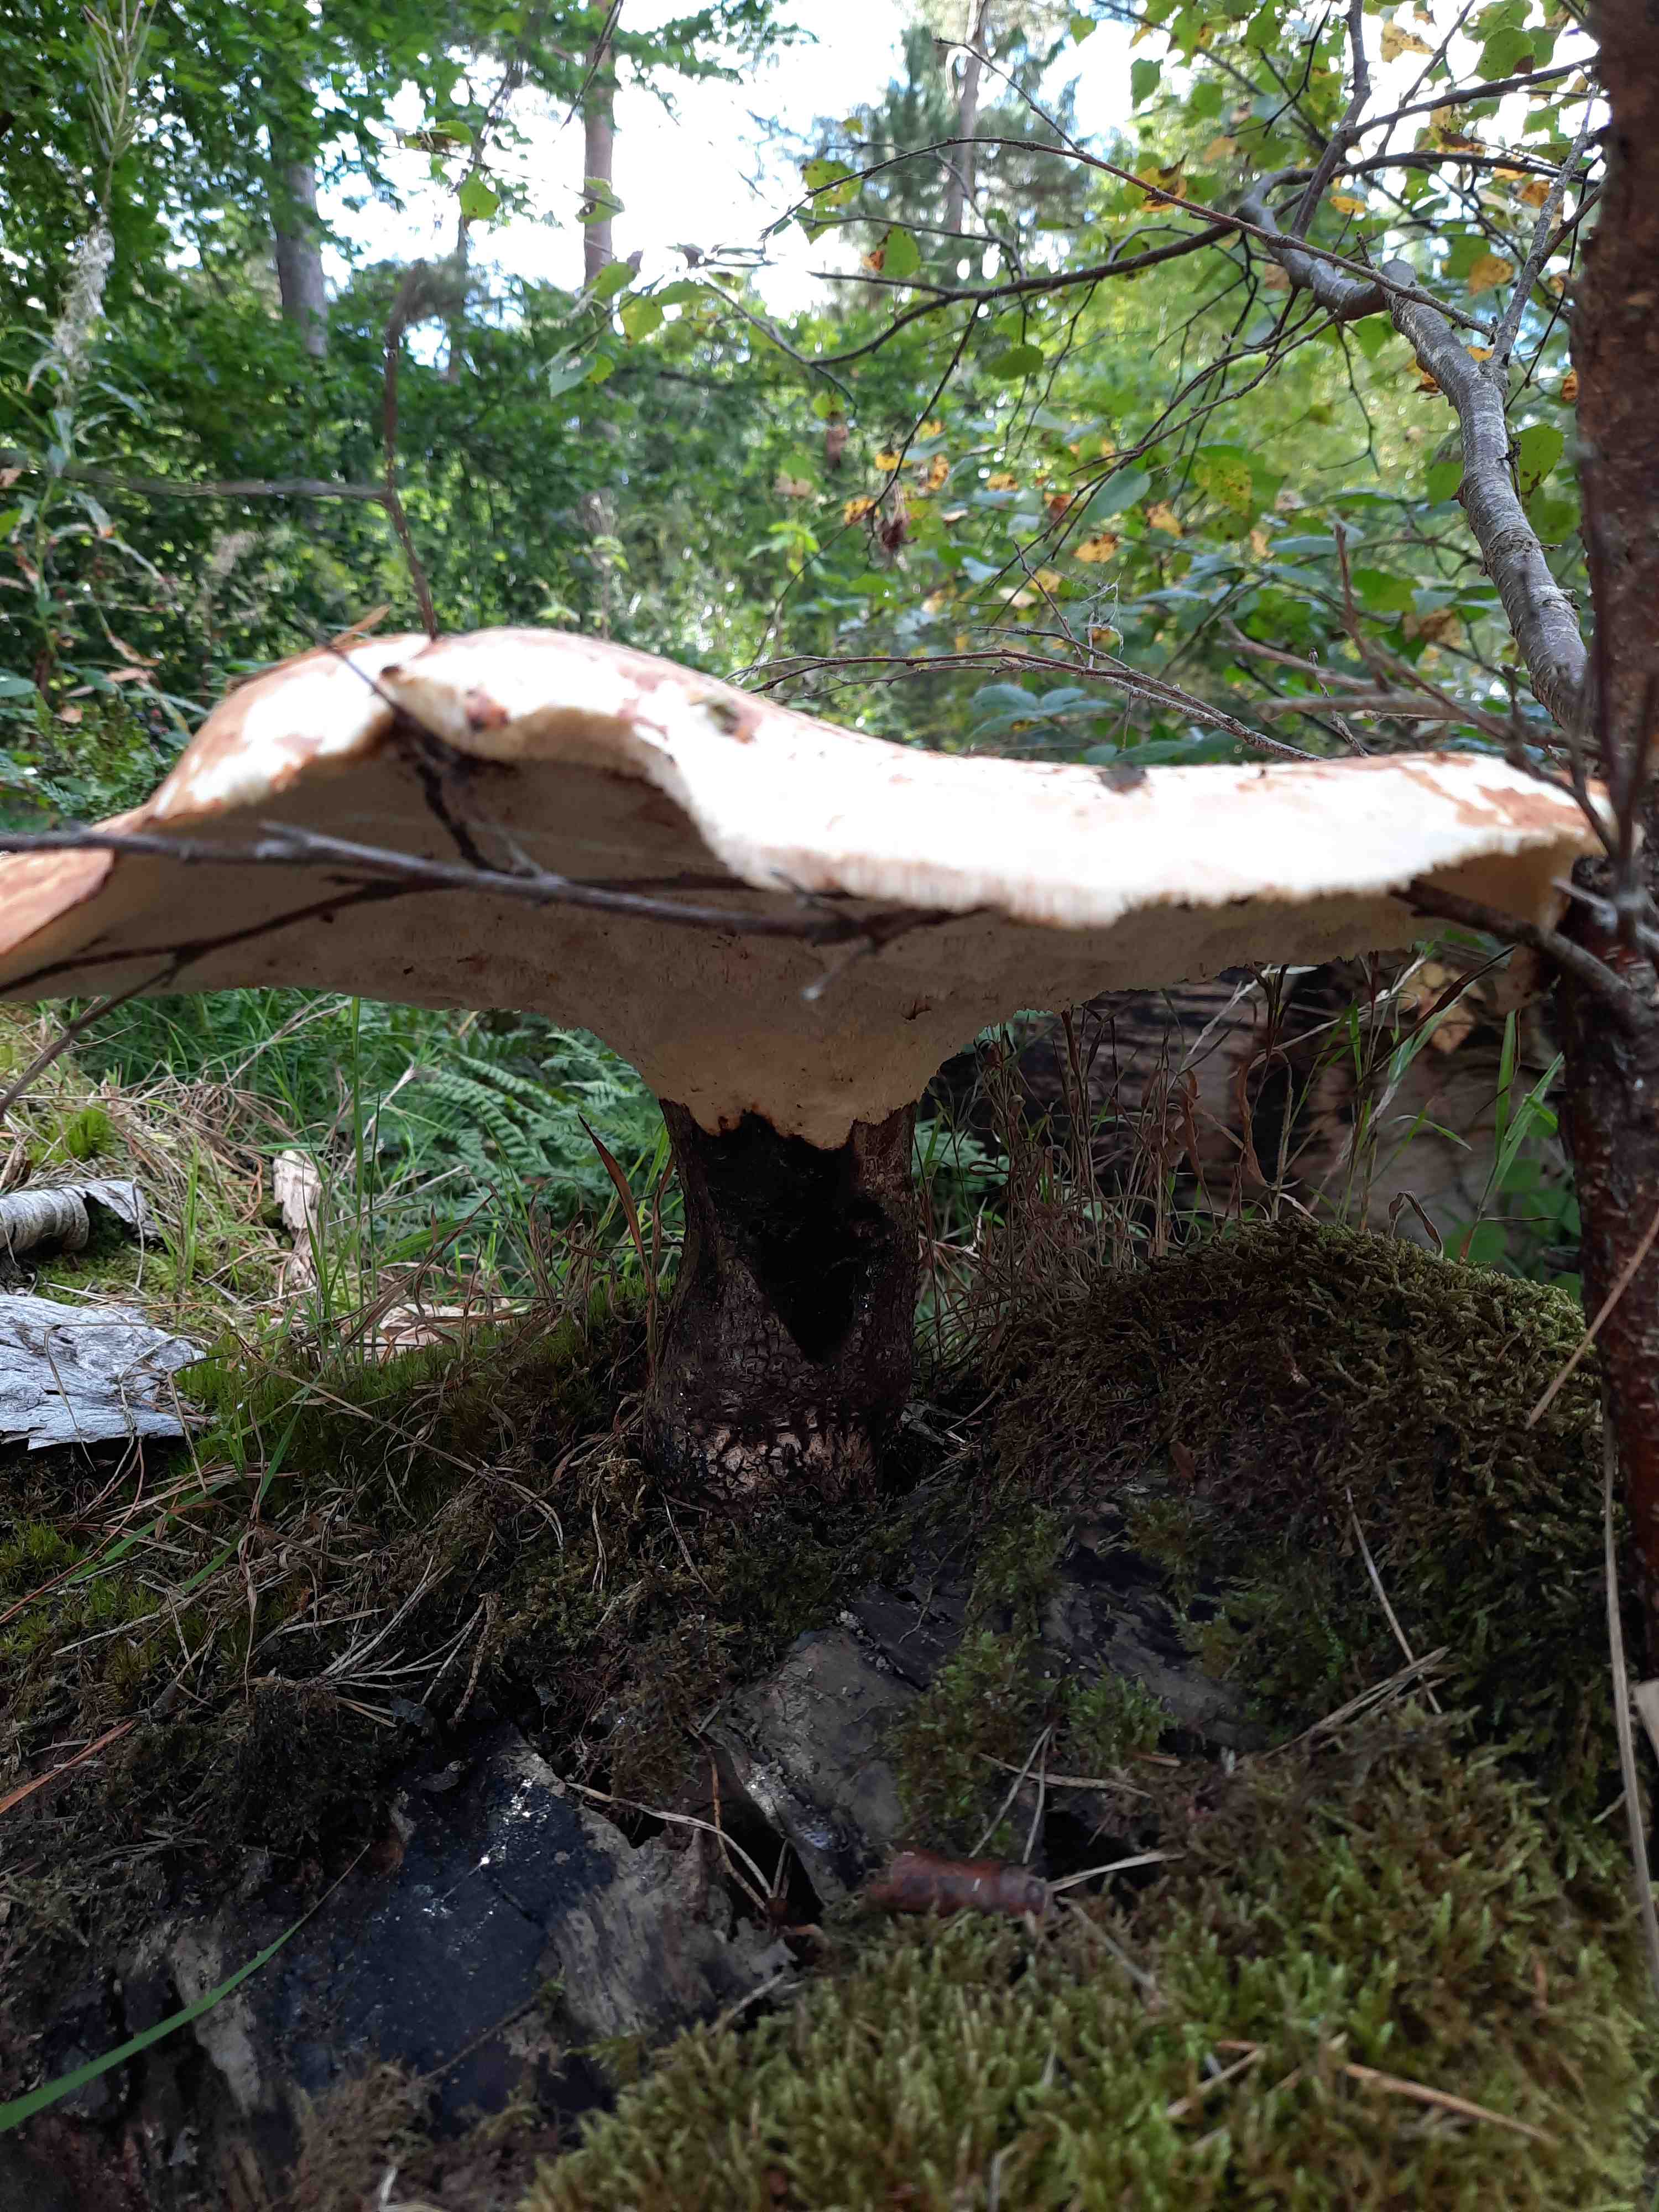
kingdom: Fungi
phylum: Basidiomycota
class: Agaricomycetes
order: Polyporales
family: Polyporaceae
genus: Cerioporus
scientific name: Cerioporus squamosus
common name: skællet stilkporesvamp
